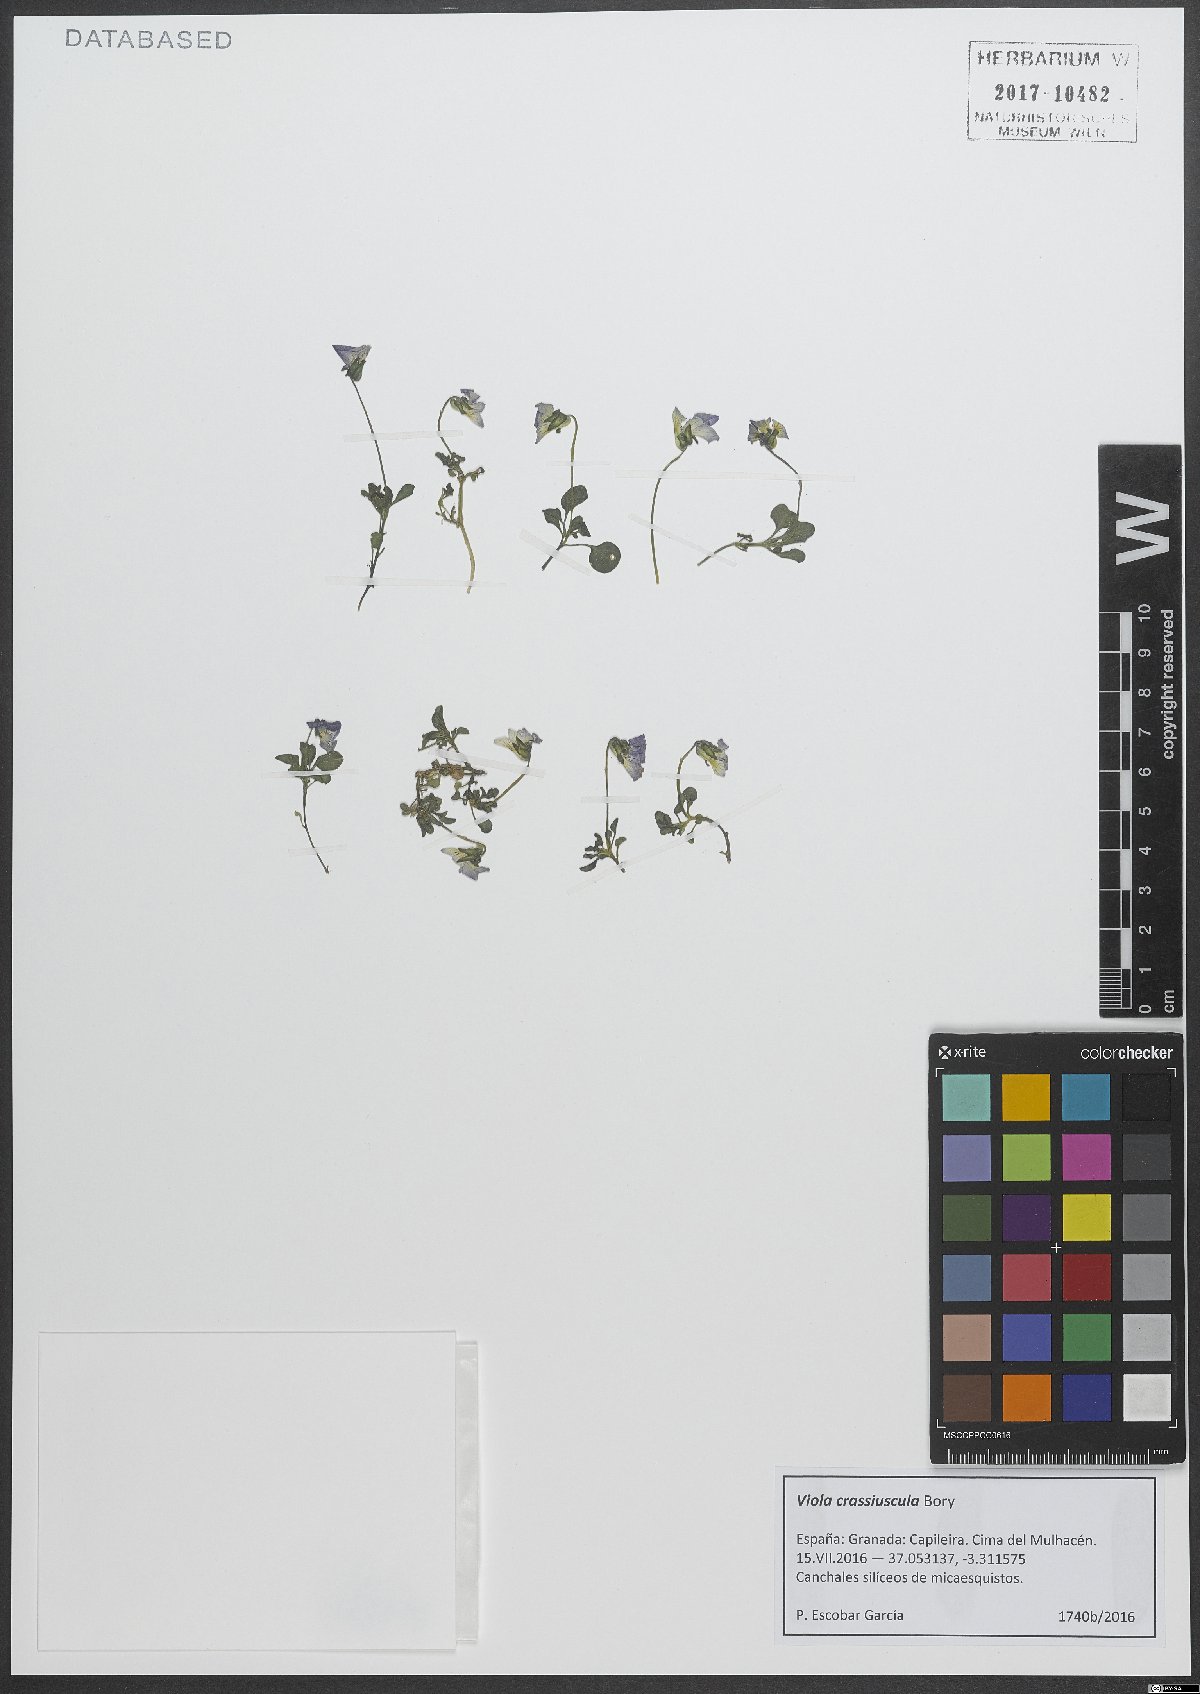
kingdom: Plantae
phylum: Tracheophyta
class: Magnoliopsida
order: Malpighiales
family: Violaceae
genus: Viola
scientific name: Viola crassiuscula
